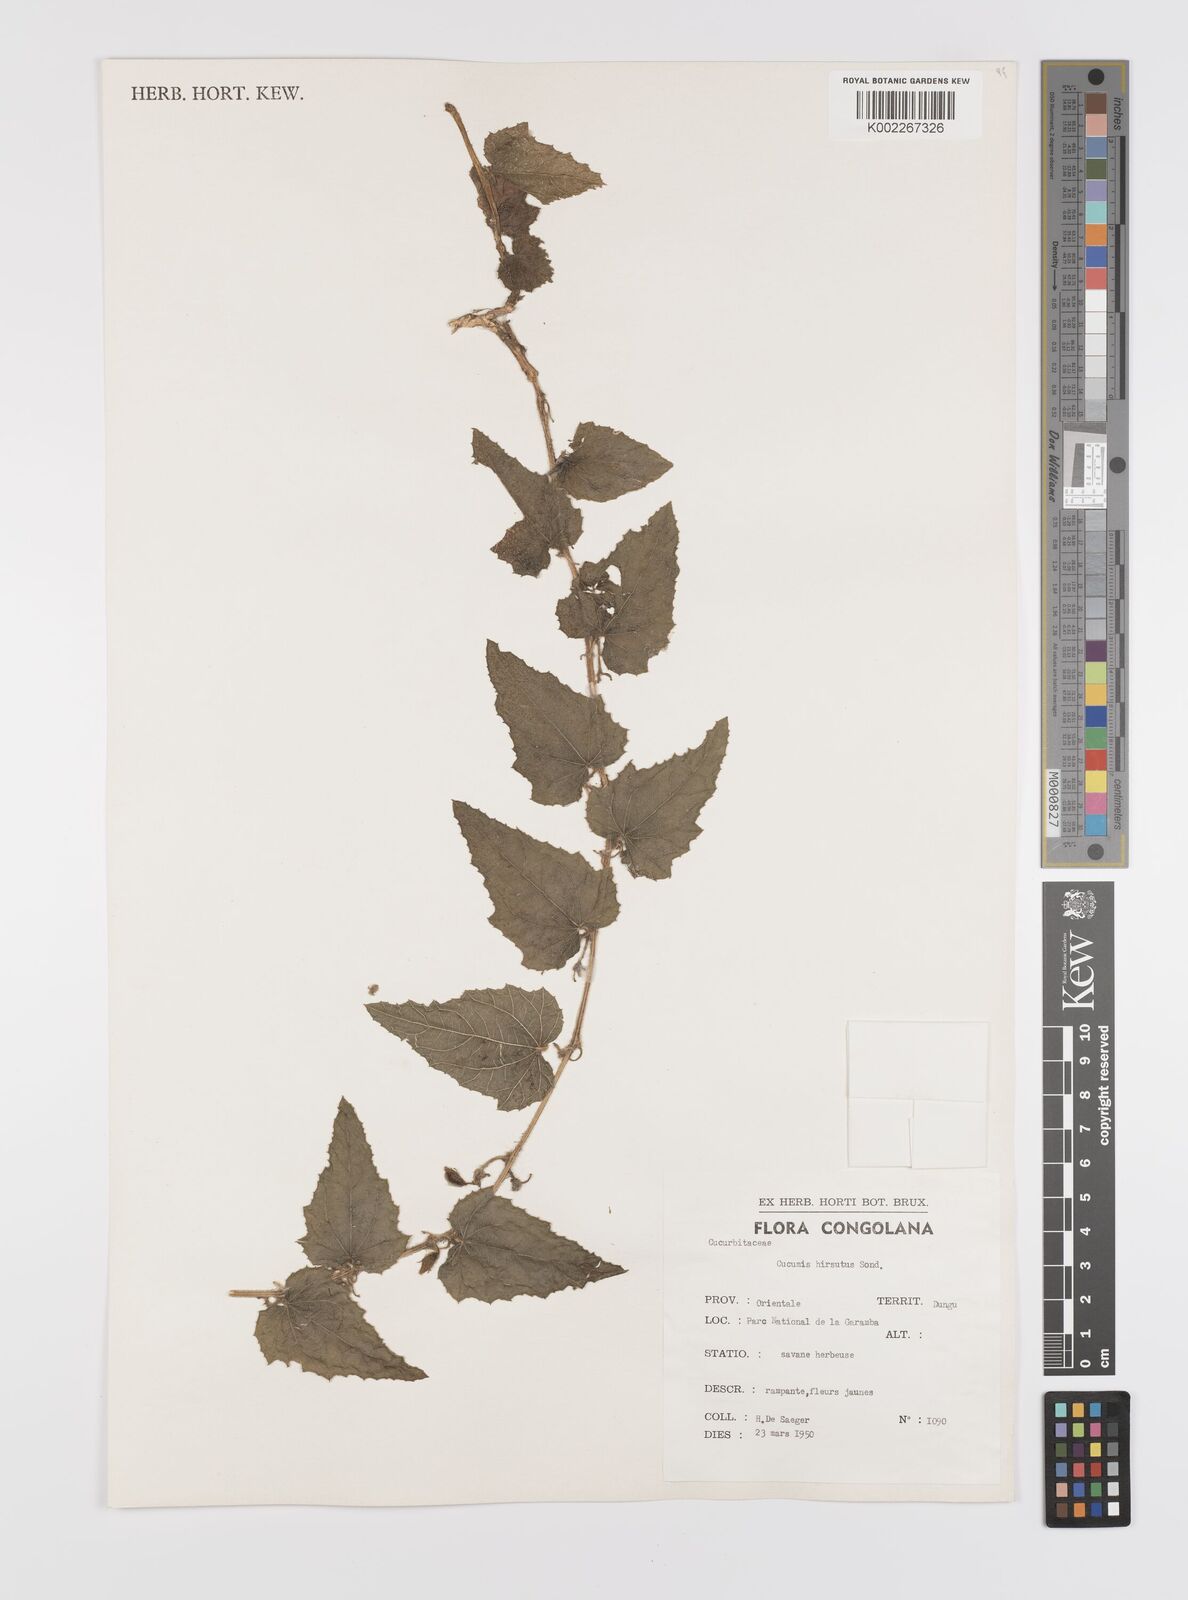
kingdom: Plantae
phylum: Tracheophyta
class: Magnoliopsida
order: Cucurbitales
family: Cucurbitaceae
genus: Cucumis
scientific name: Cucumis hirsutus
